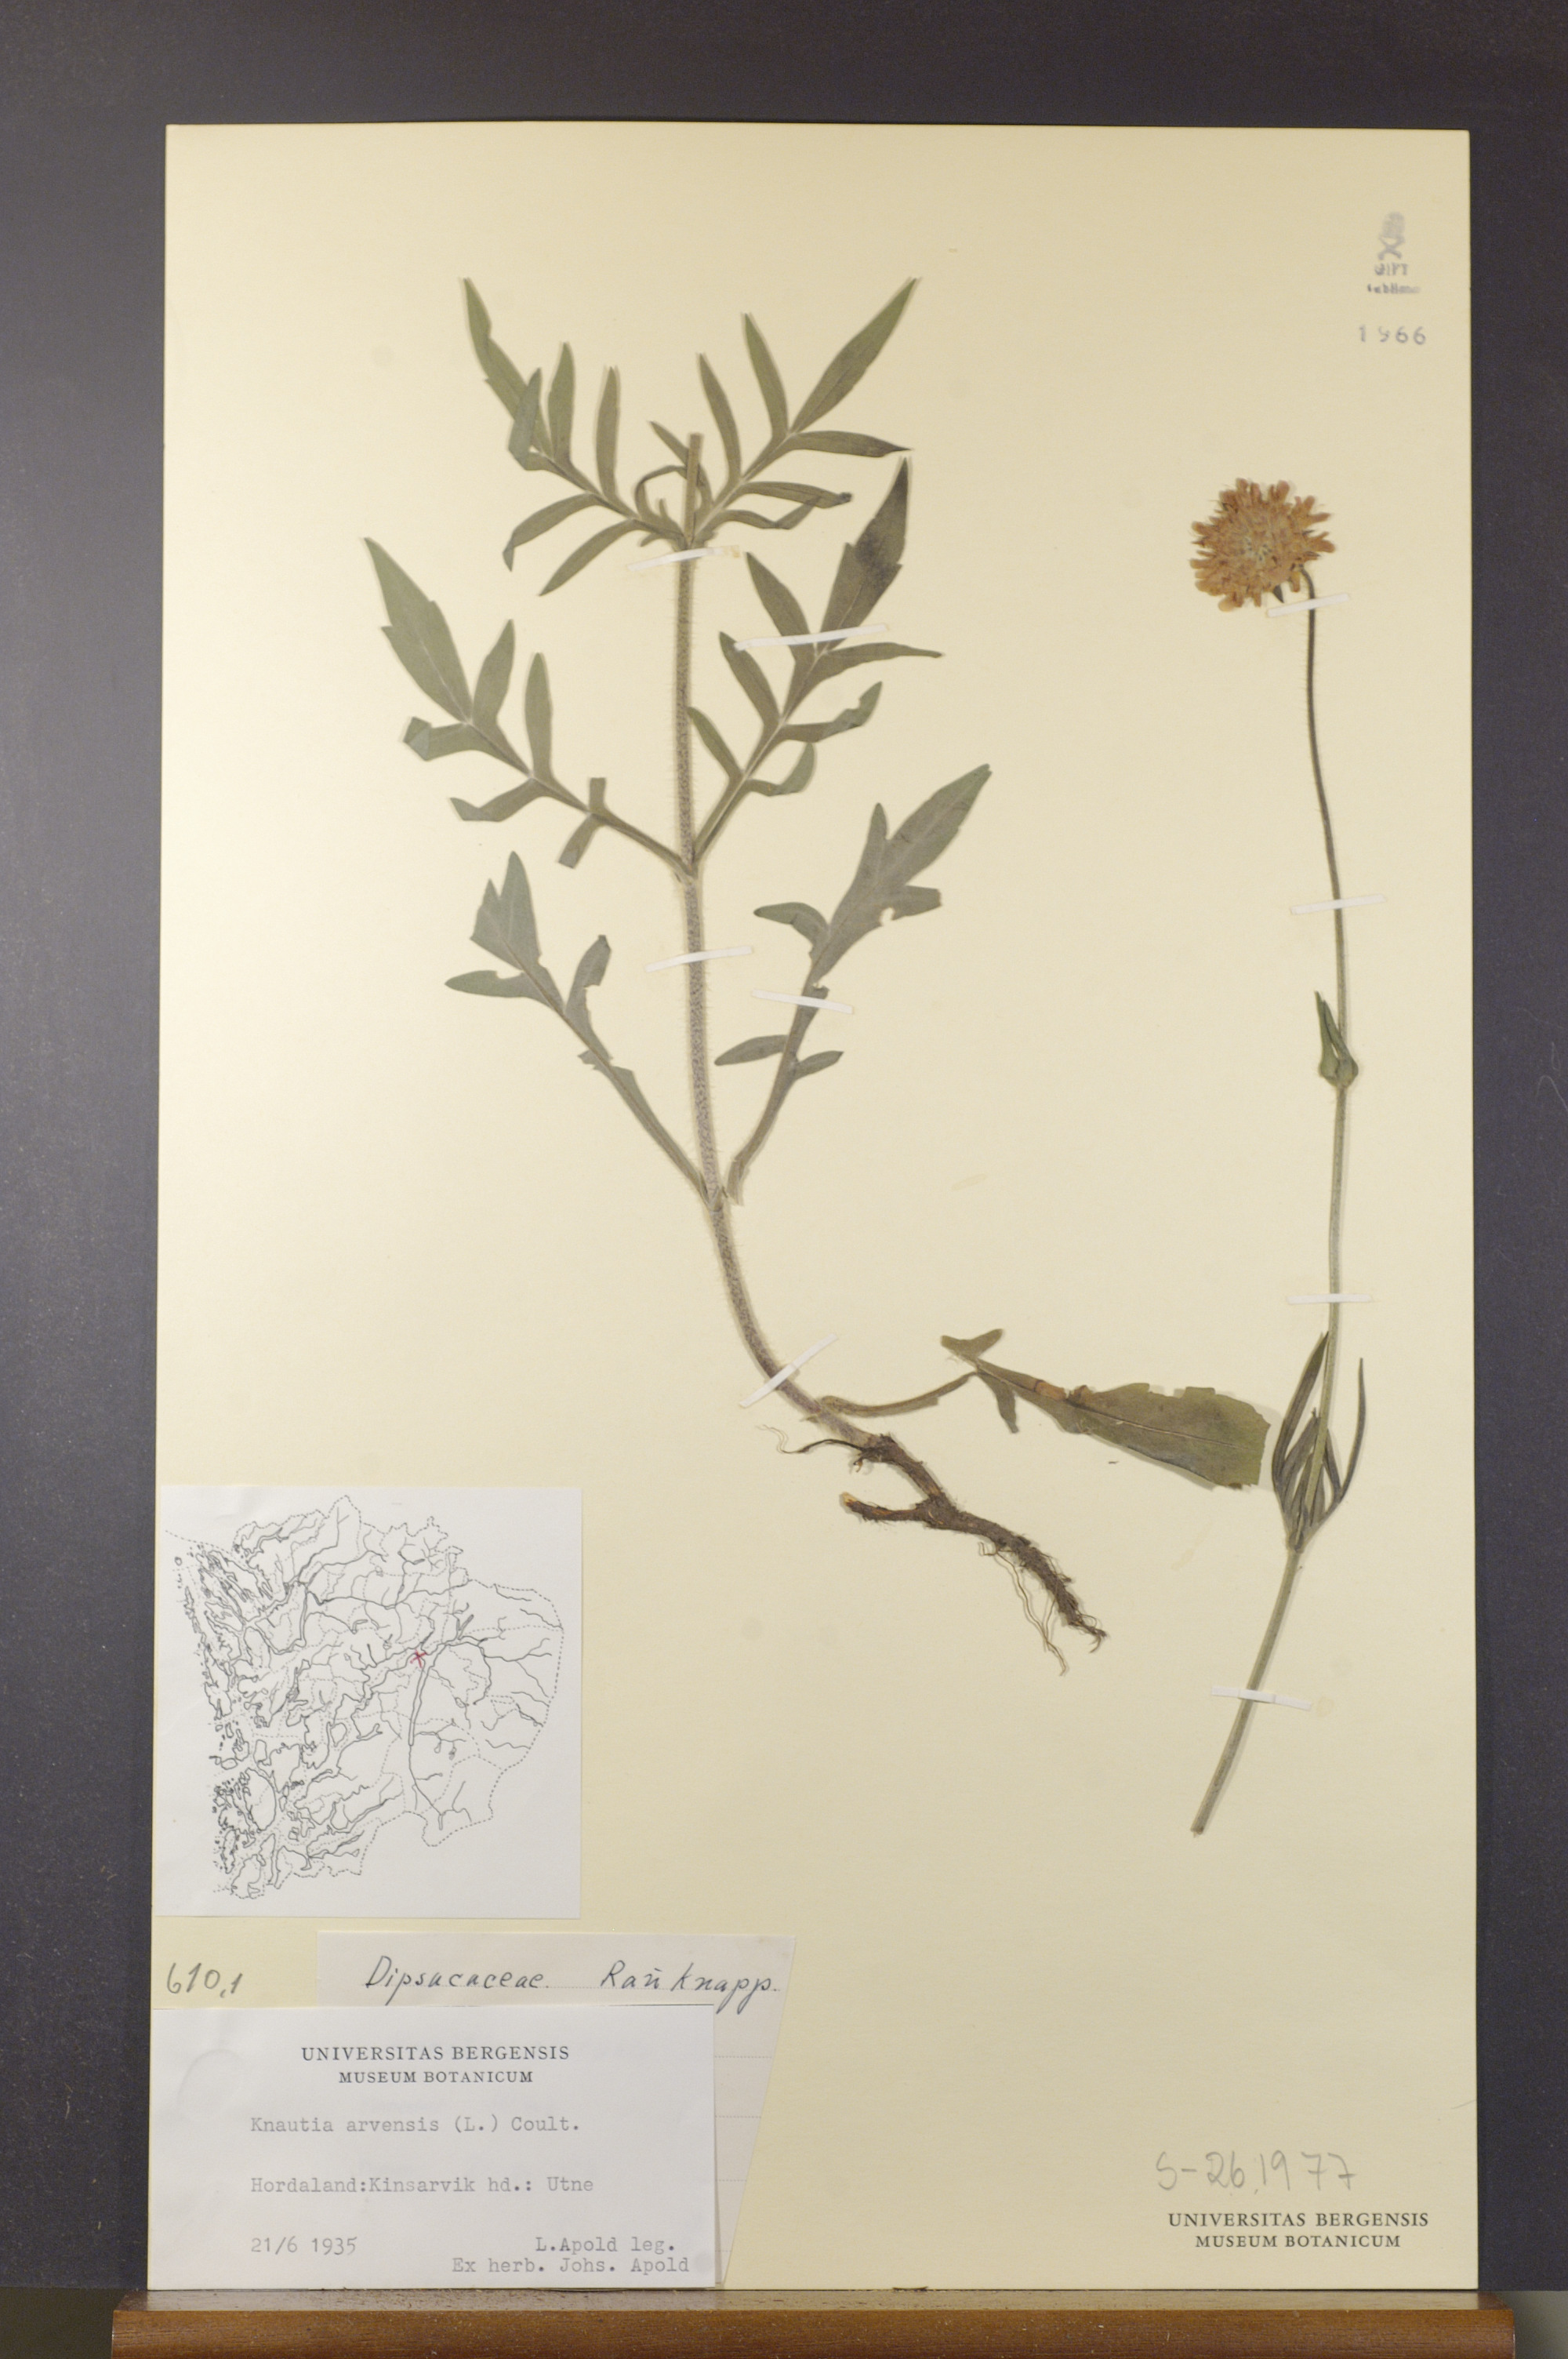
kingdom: Plantae
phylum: Tracheophyta
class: Magnoliopsida
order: Dipsacales
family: Caprifoliaceae
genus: Knautia
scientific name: Knautia arvensis
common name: Field scabiosa
